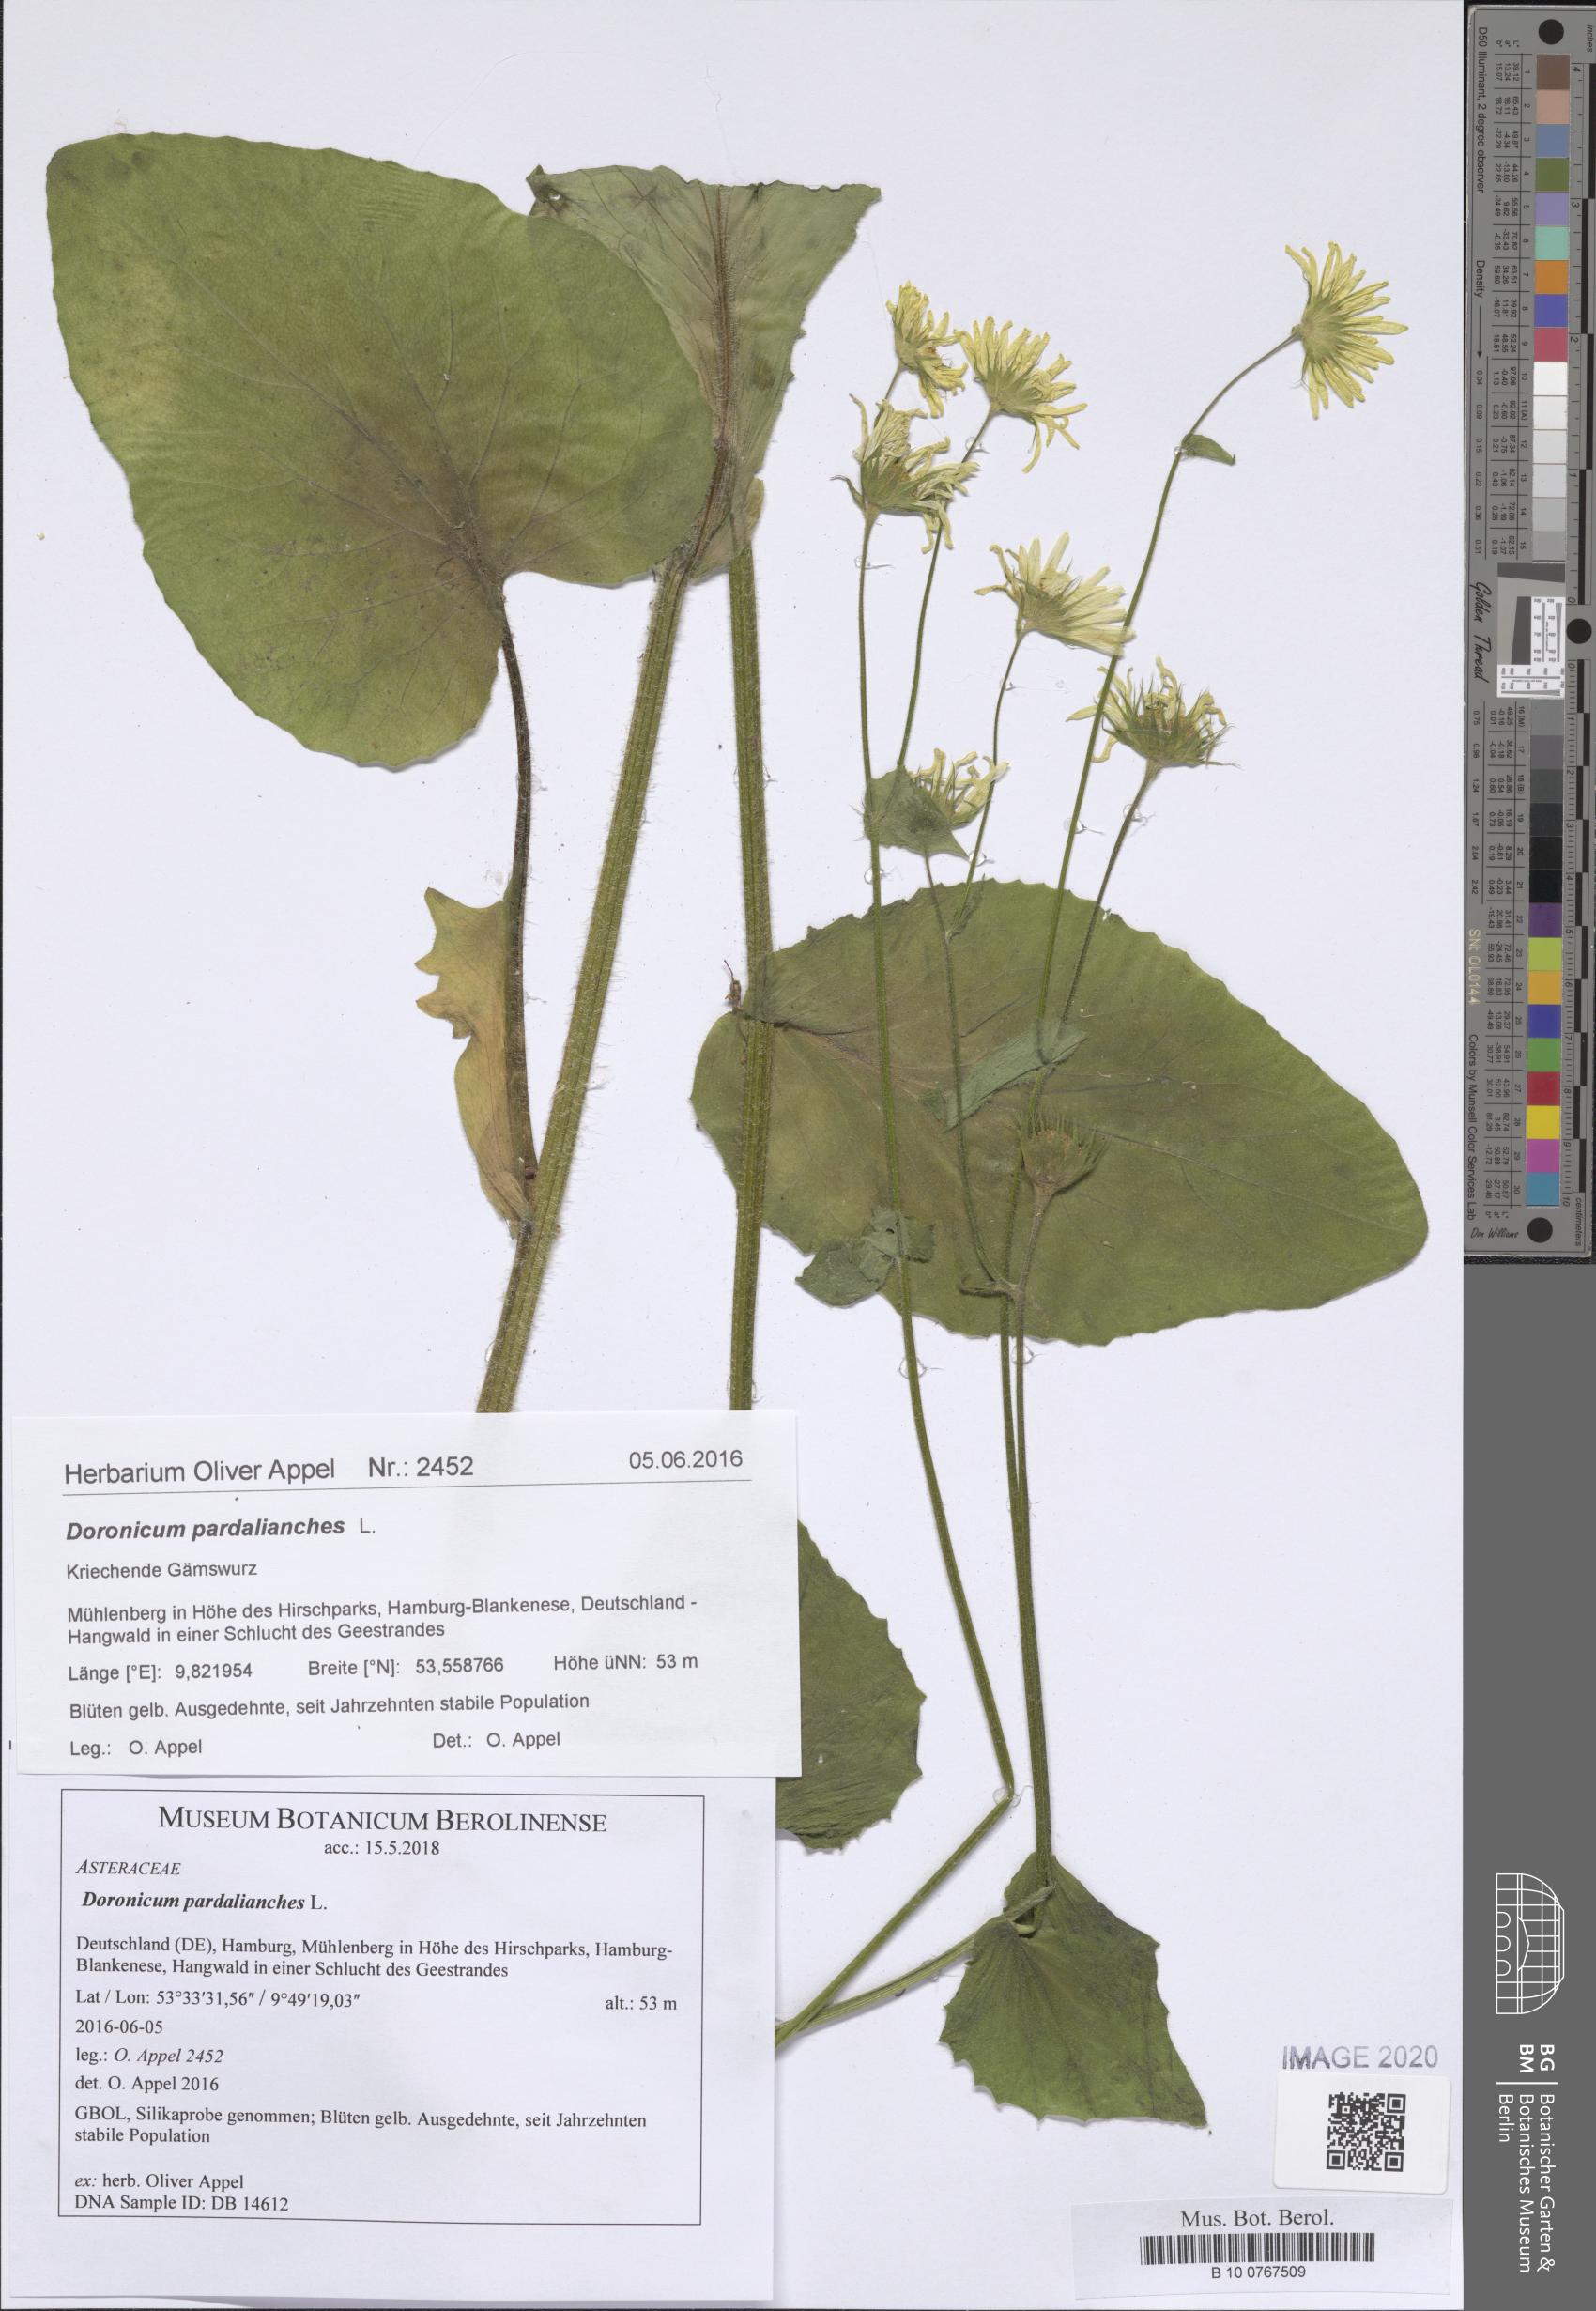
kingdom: Plantae
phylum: Tracheophyta
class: Magnoliopsida
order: Asterales
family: Asteraceae
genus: Doronicum
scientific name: Doronicum pardalianches
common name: Leopard's-bane
